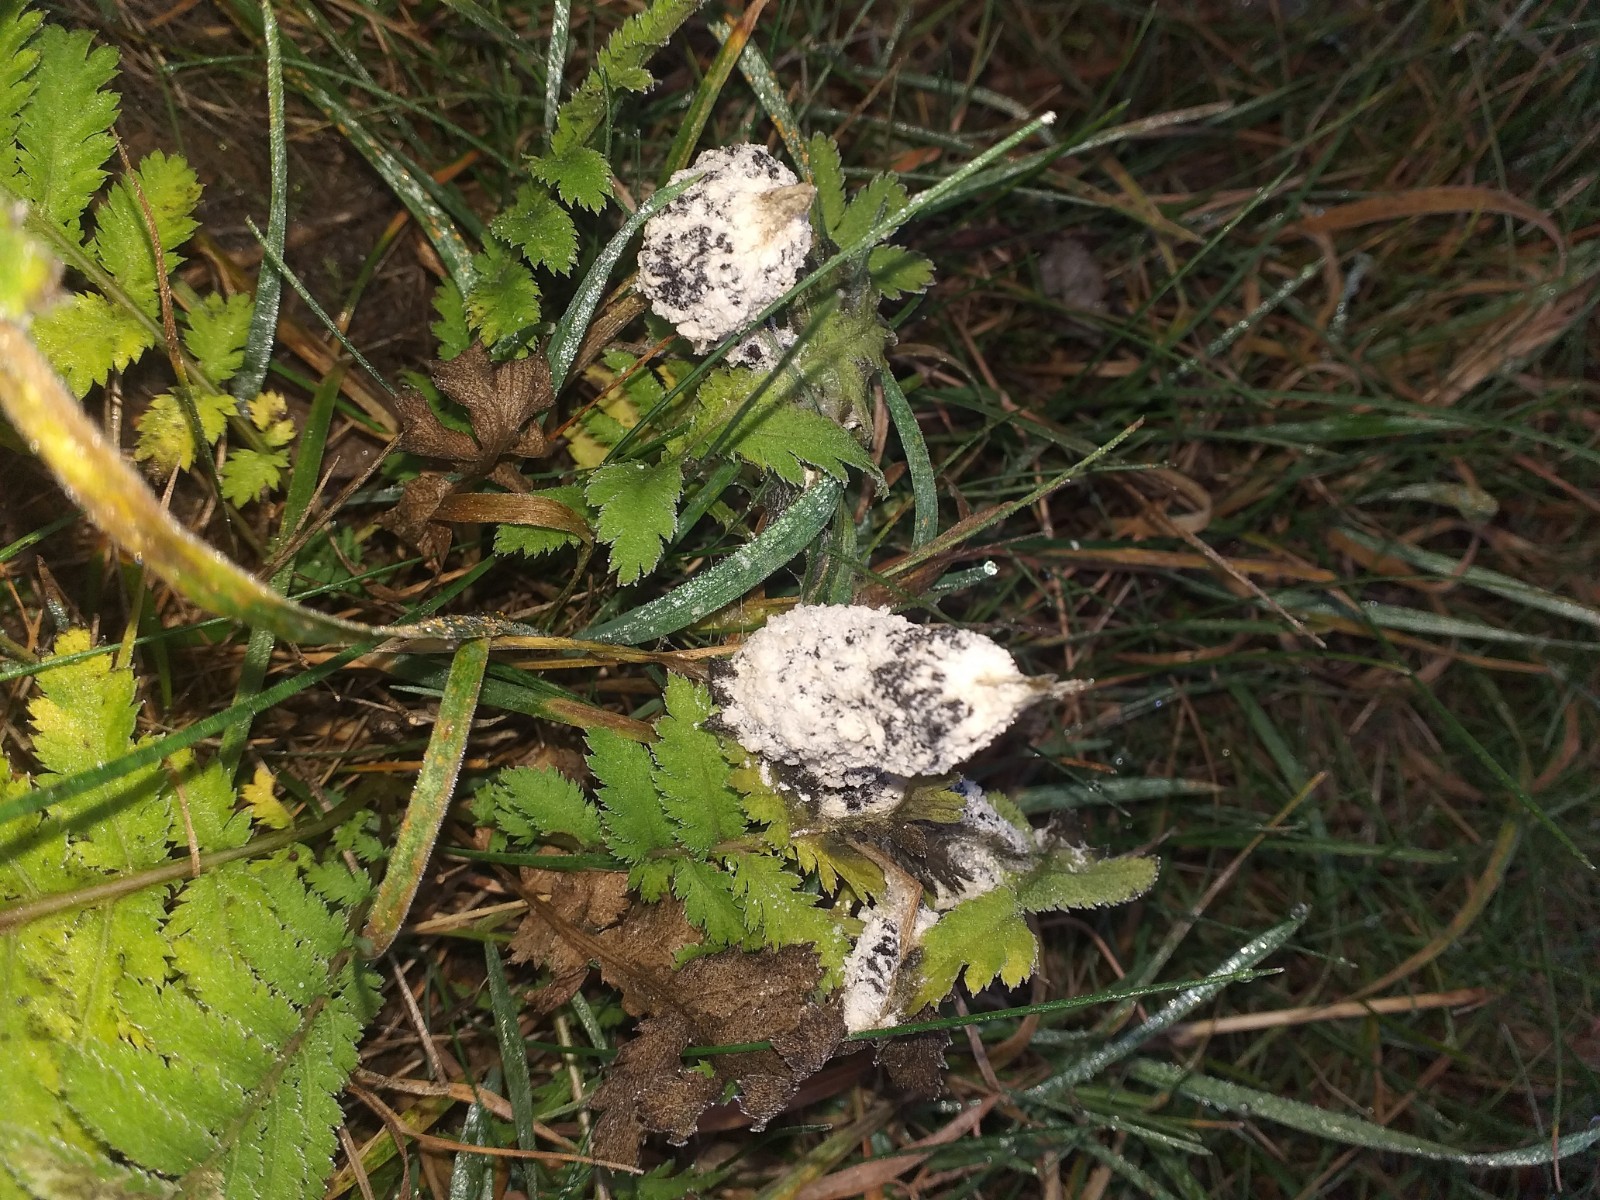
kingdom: Protozoa
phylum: Mycetozoa
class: Myxomycetes
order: Physarales
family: Physaraceae
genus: Didymium
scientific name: Didymium
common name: urteskum
